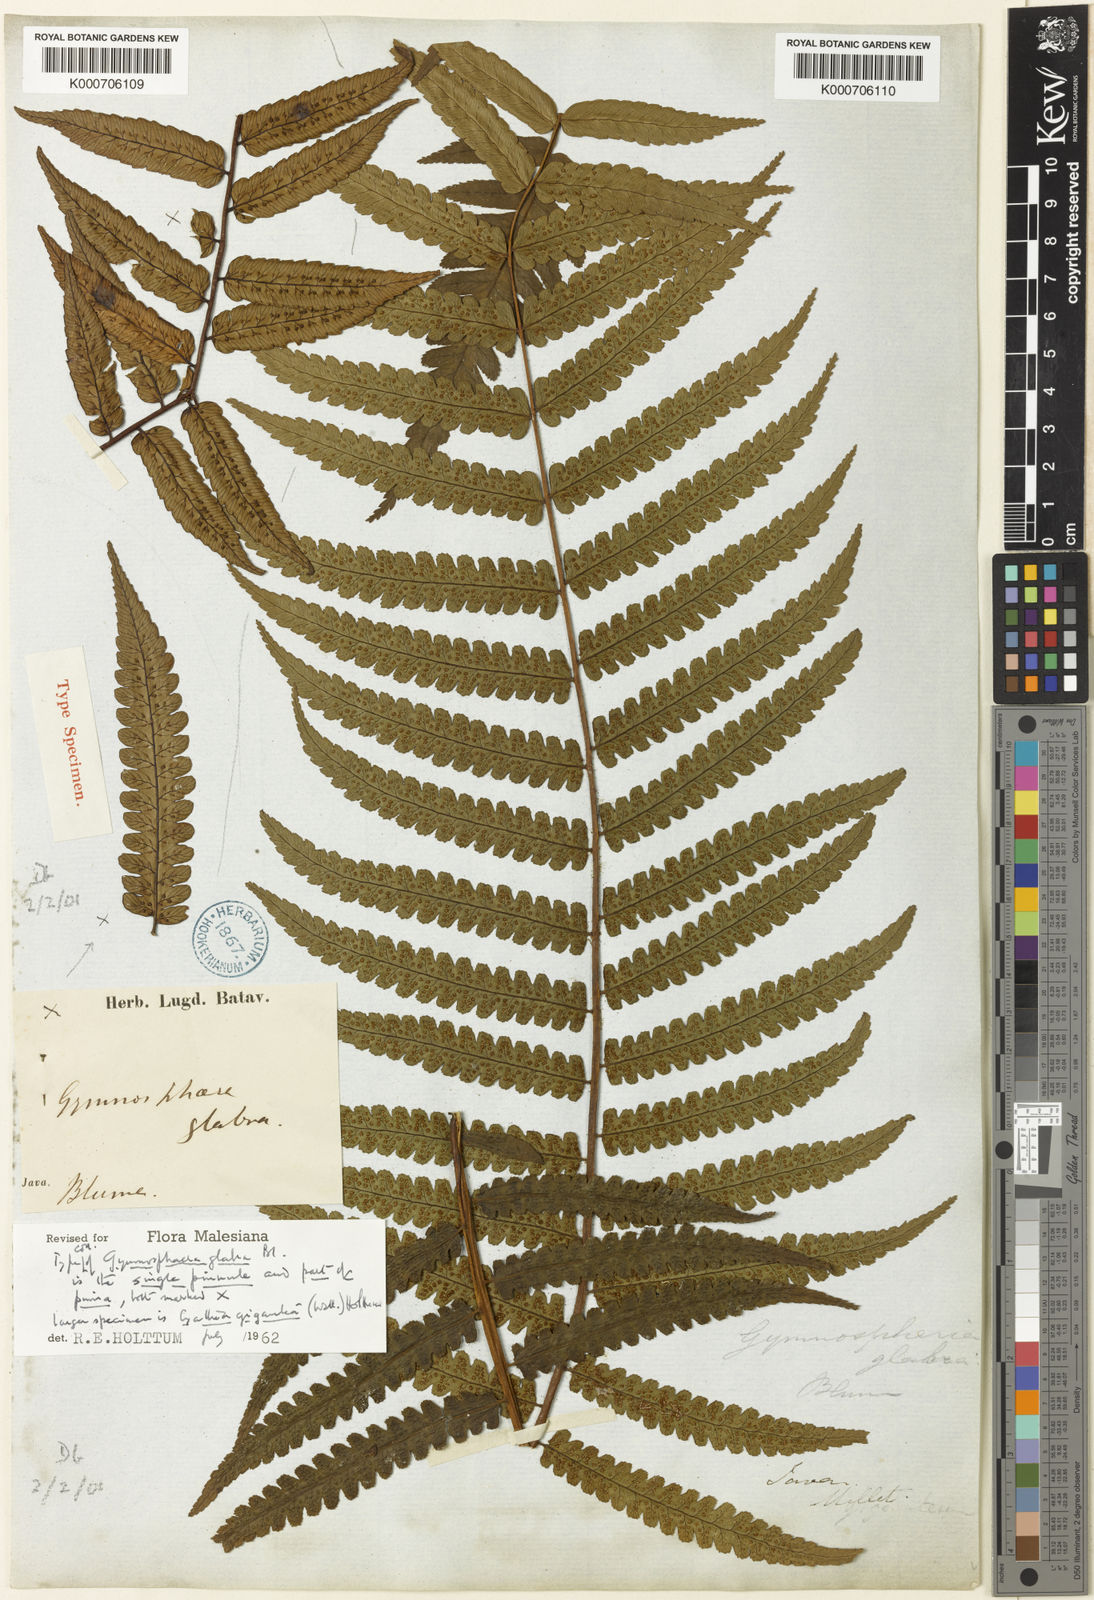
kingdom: Plantae
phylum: Tracheophyta
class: Polypodiopsida
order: Cyatheales
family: Cyatheaceae
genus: Gymnosphaera
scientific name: Gymnosphaera glabra
